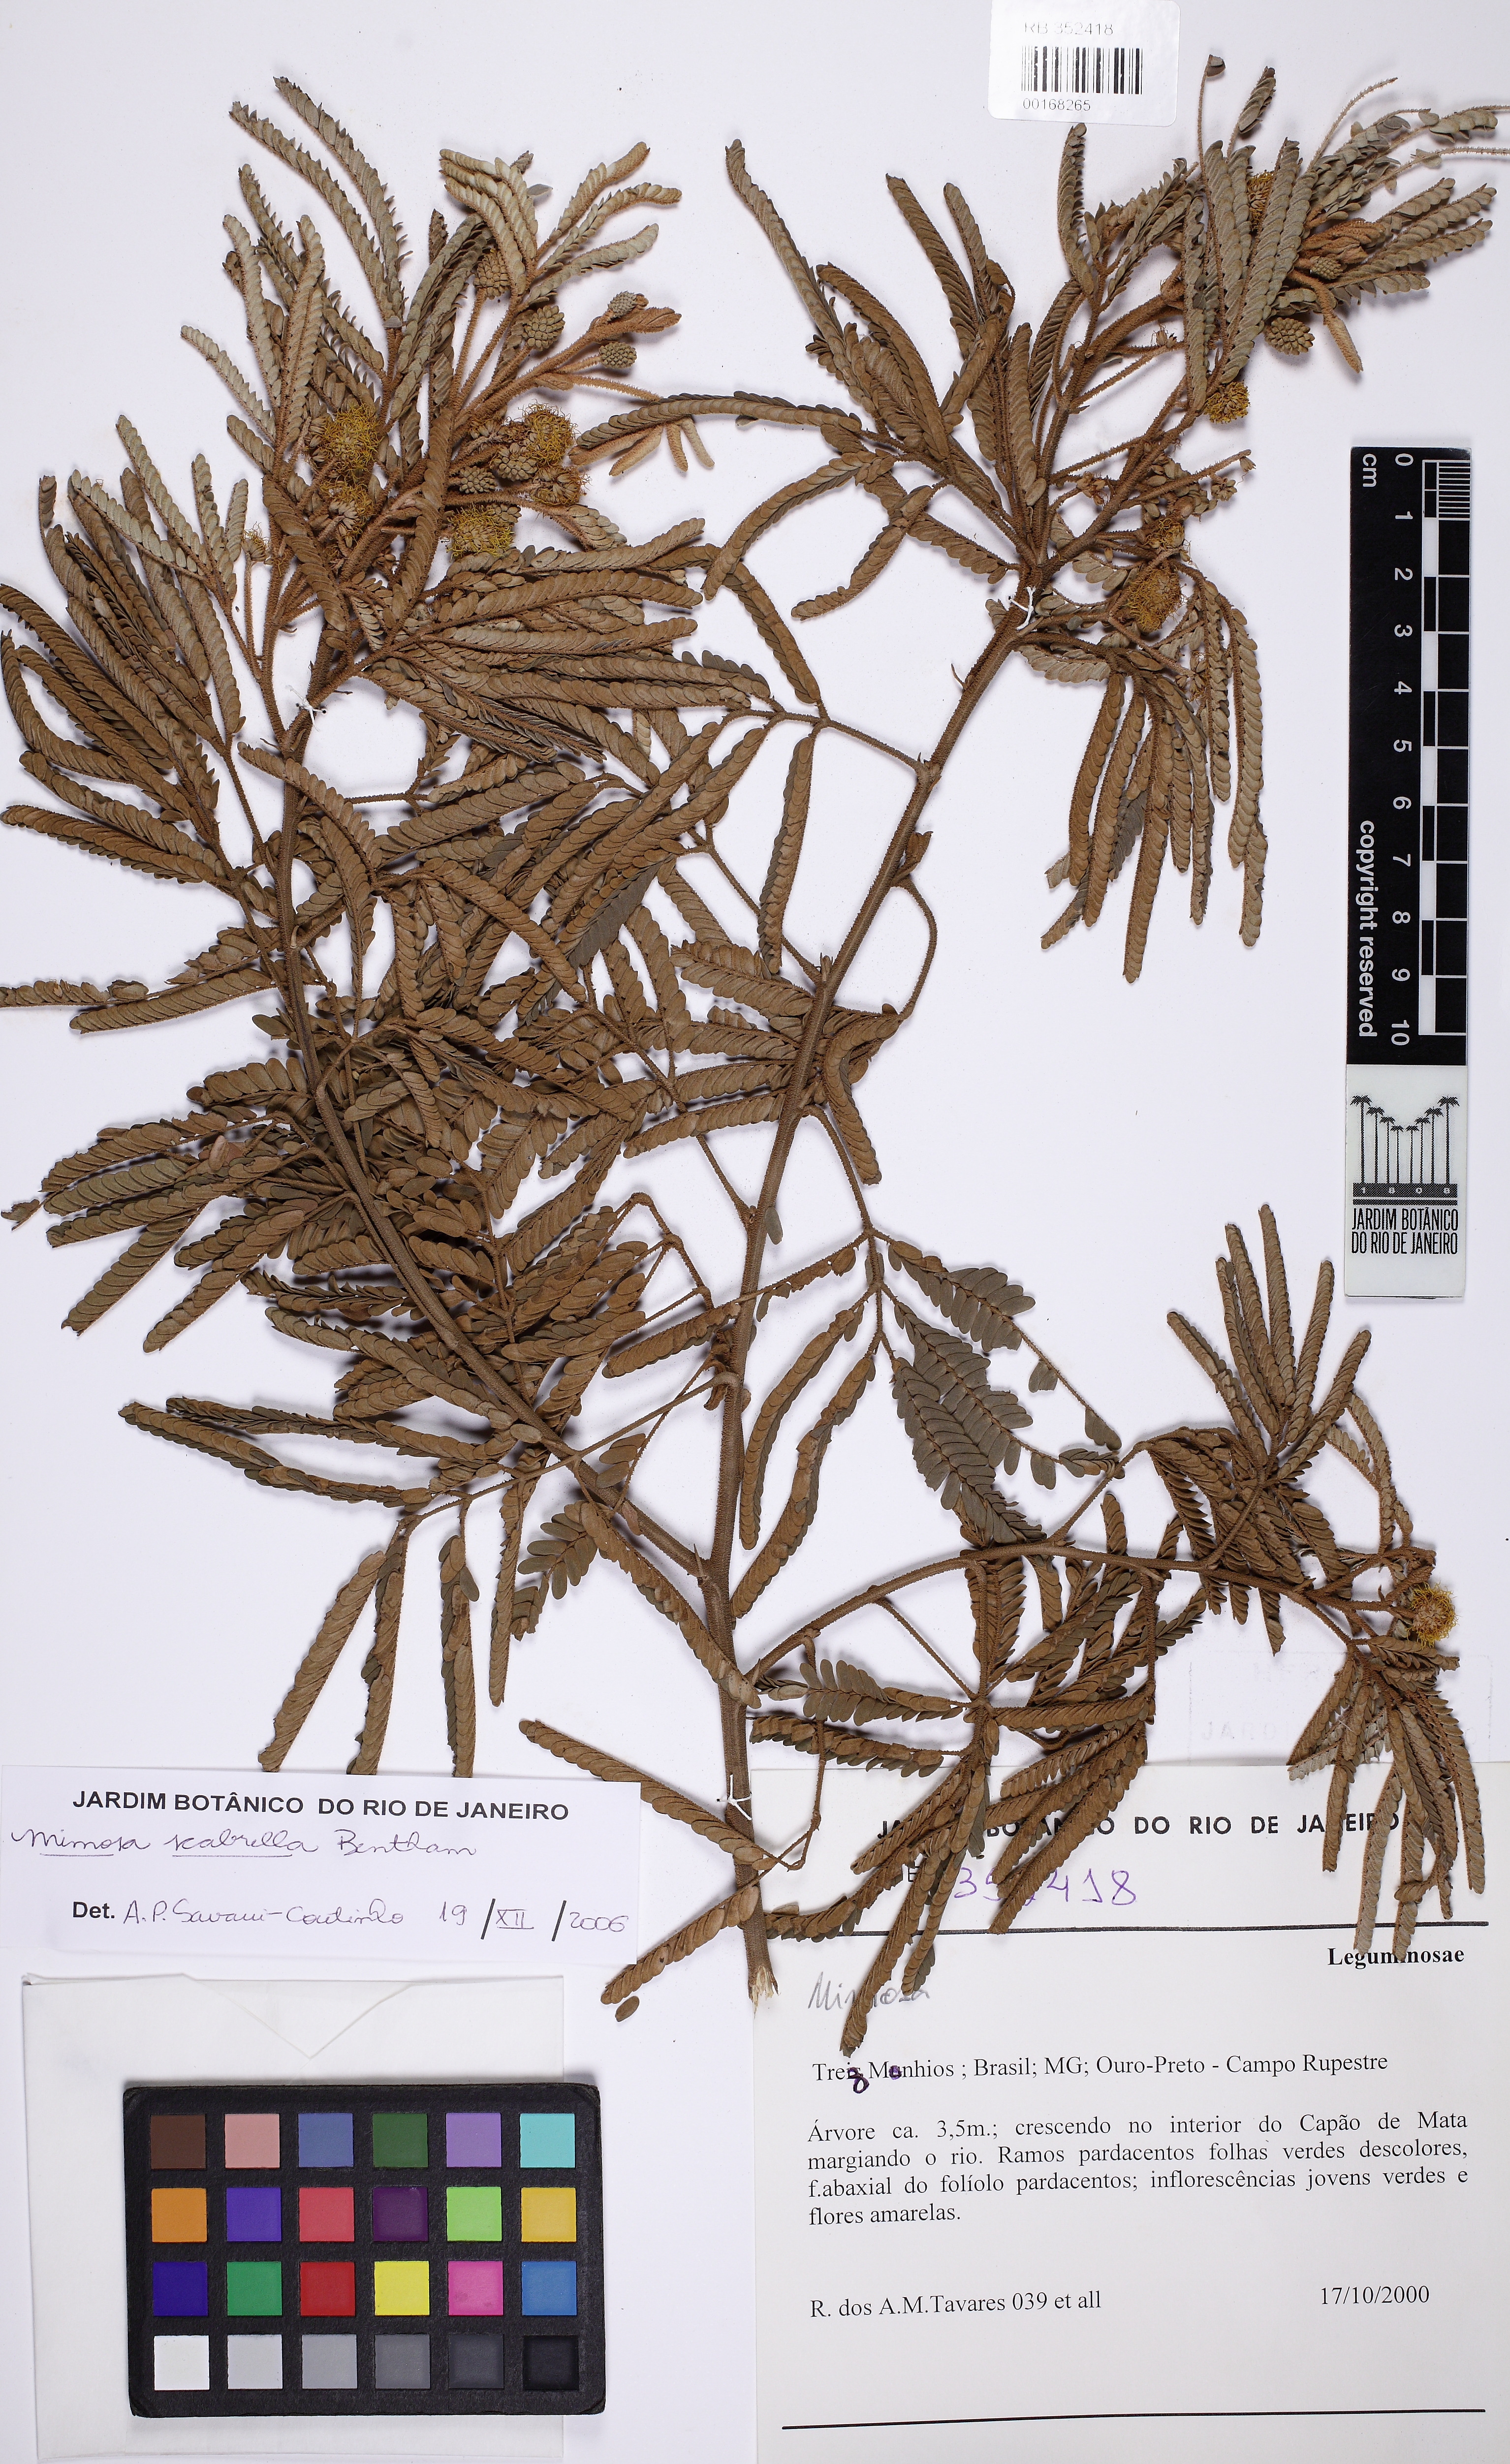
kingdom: Plantae
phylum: Tracheophyta
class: Magnoliopsida
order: Fabales
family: Fabaceae
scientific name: Fabaceae
